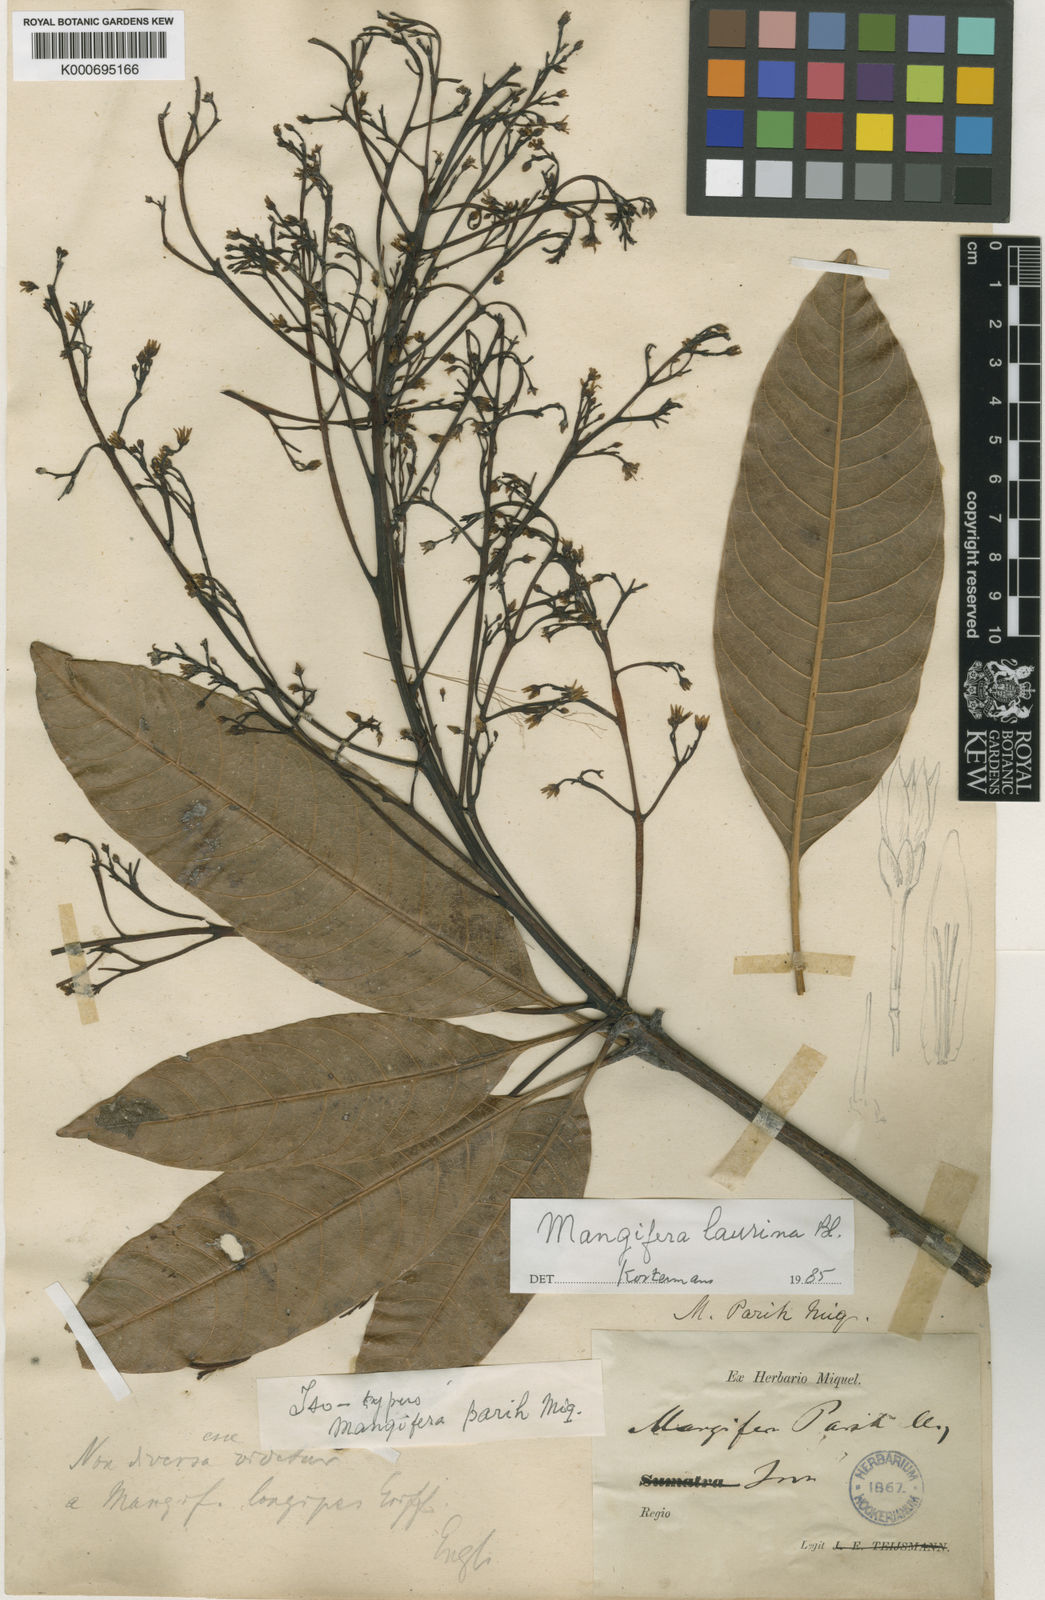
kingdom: Plantae
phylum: Tracheophyta
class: Magnoliopsida
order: Sapindales
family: Anacardiaceae
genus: Mangifera
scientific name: Mangifera laurina
